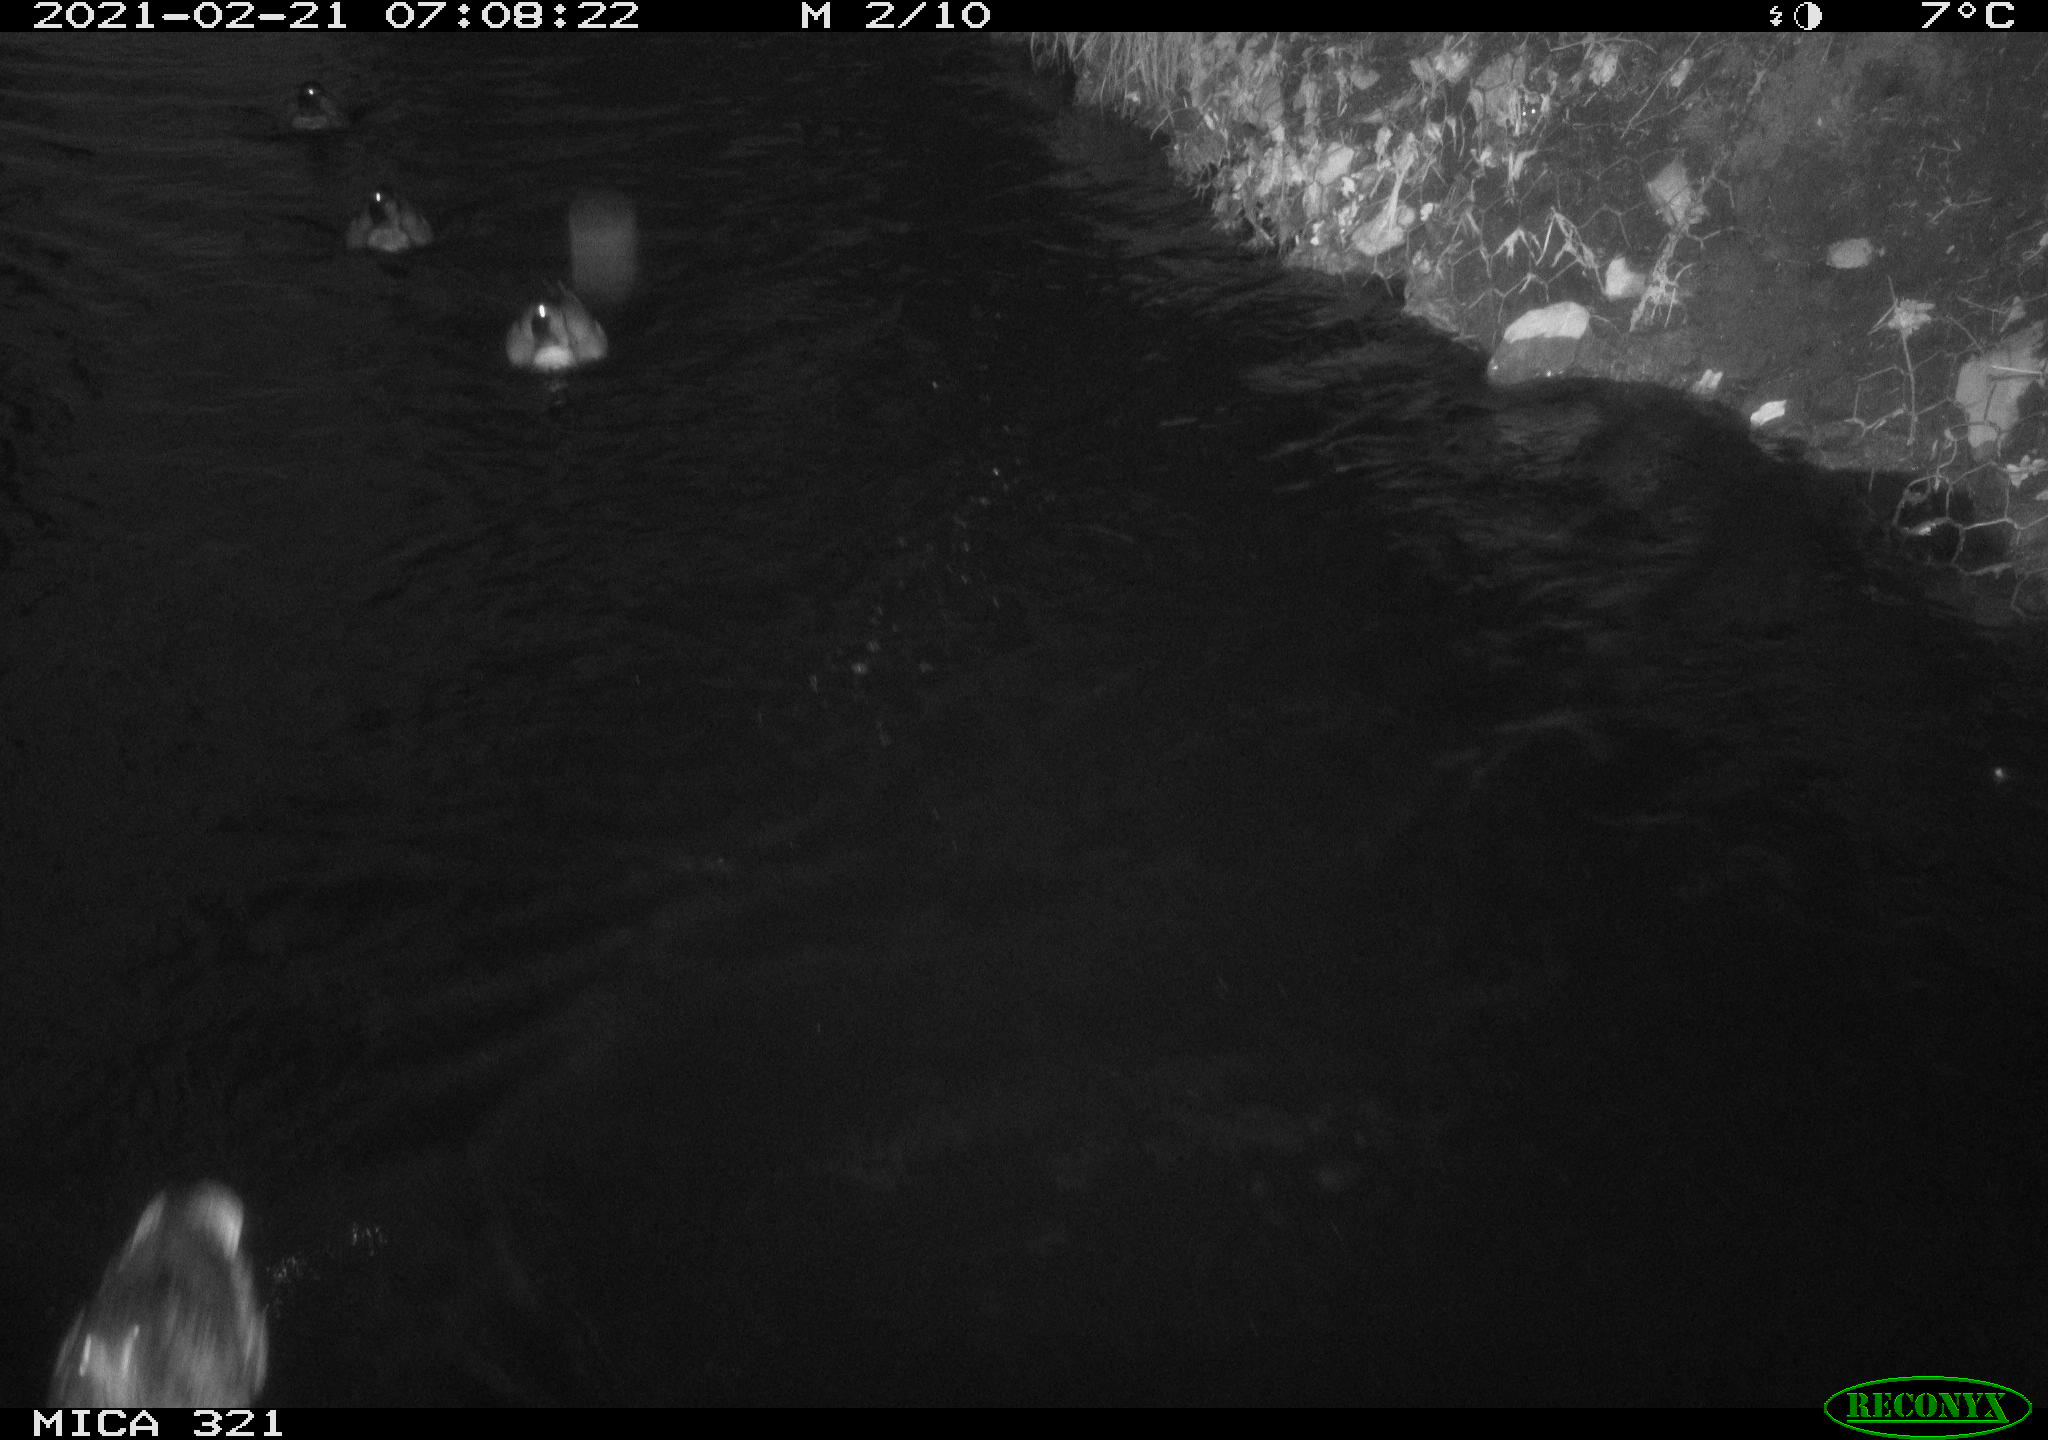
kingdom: Animalia
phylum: Chordata
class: Aves
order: Anseriformes
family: Anatidae
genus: Anas
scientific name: Anas platyrhynchos
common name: Mallard
